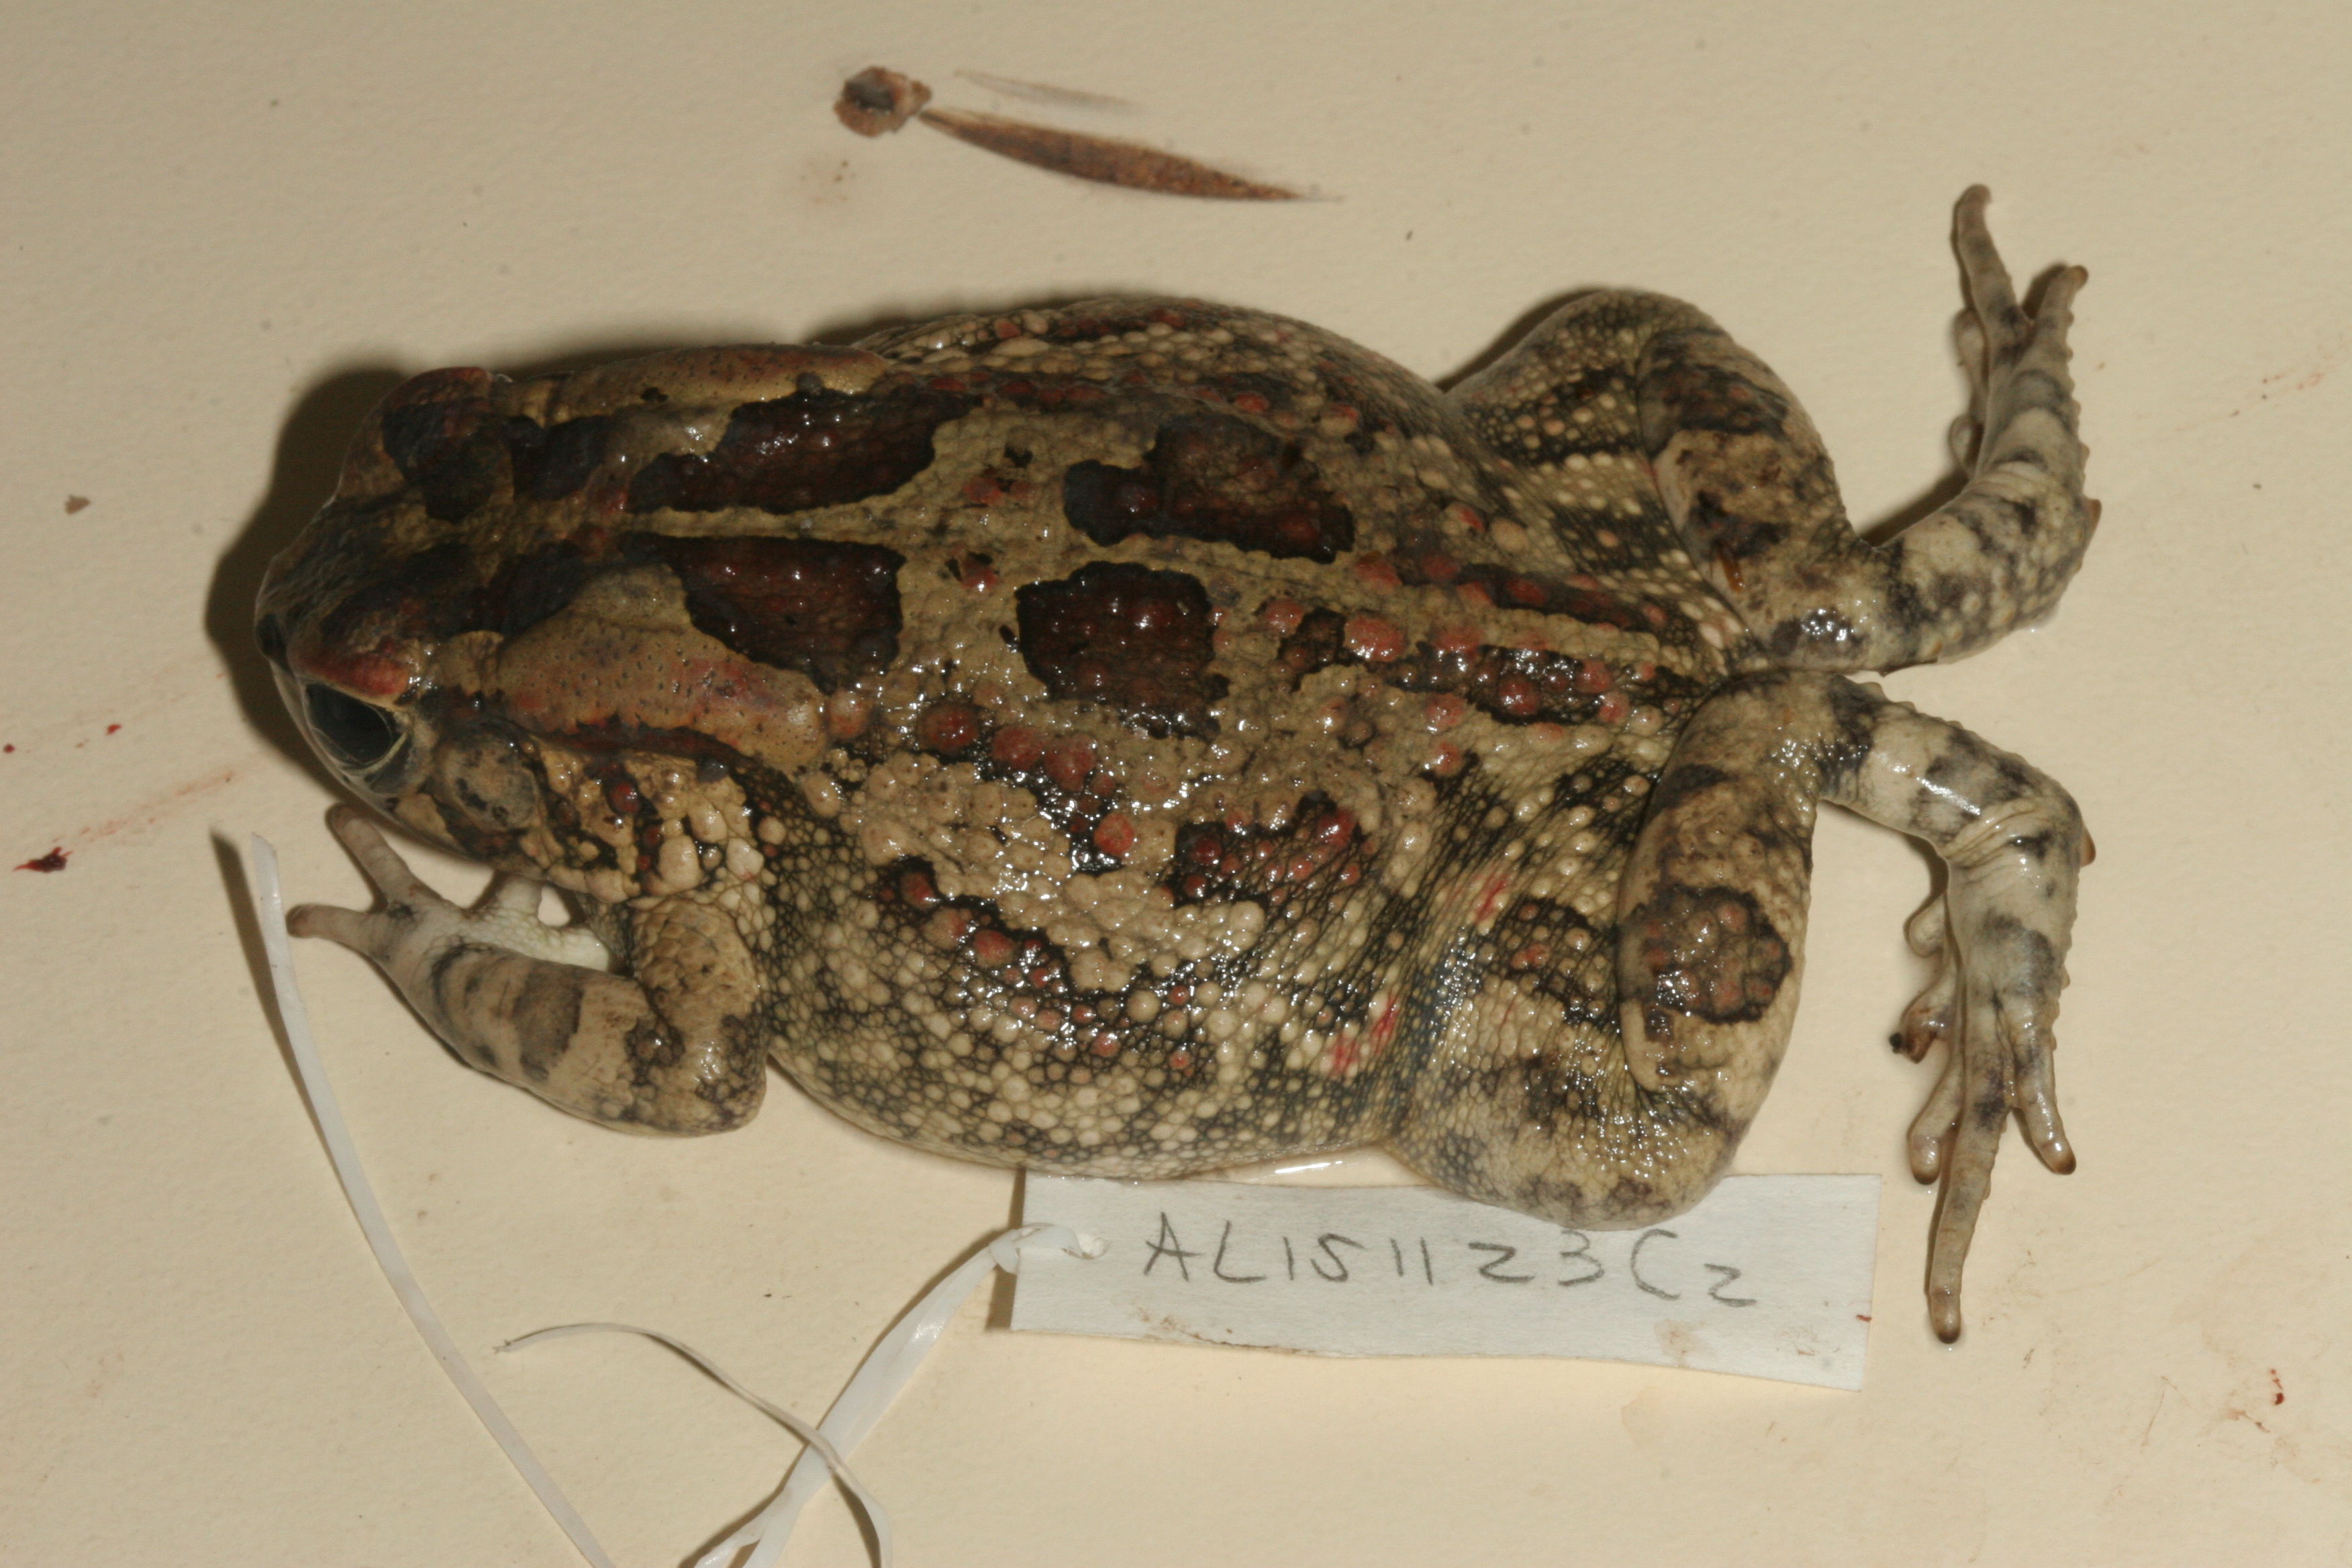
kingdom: Animalia
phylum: Chordata
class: Amphibia
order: Anura
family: Bufonidae
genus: Sclerophrys
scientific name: Sclerophrys garmani
